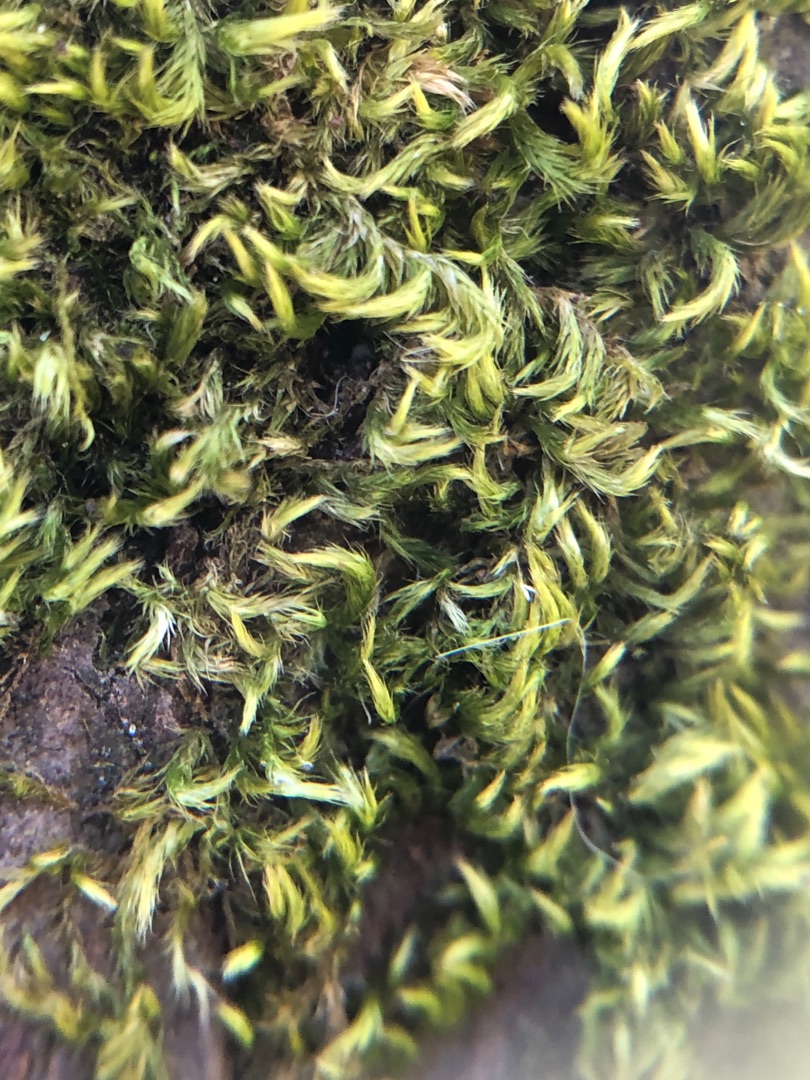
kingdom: Plantae
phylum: Bryophyta
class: Bryopsida
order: Hypnales
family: Brachytheciaceae
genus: Homalothecium
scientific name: Homalothecium sericeum
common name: Krybende silkemos
